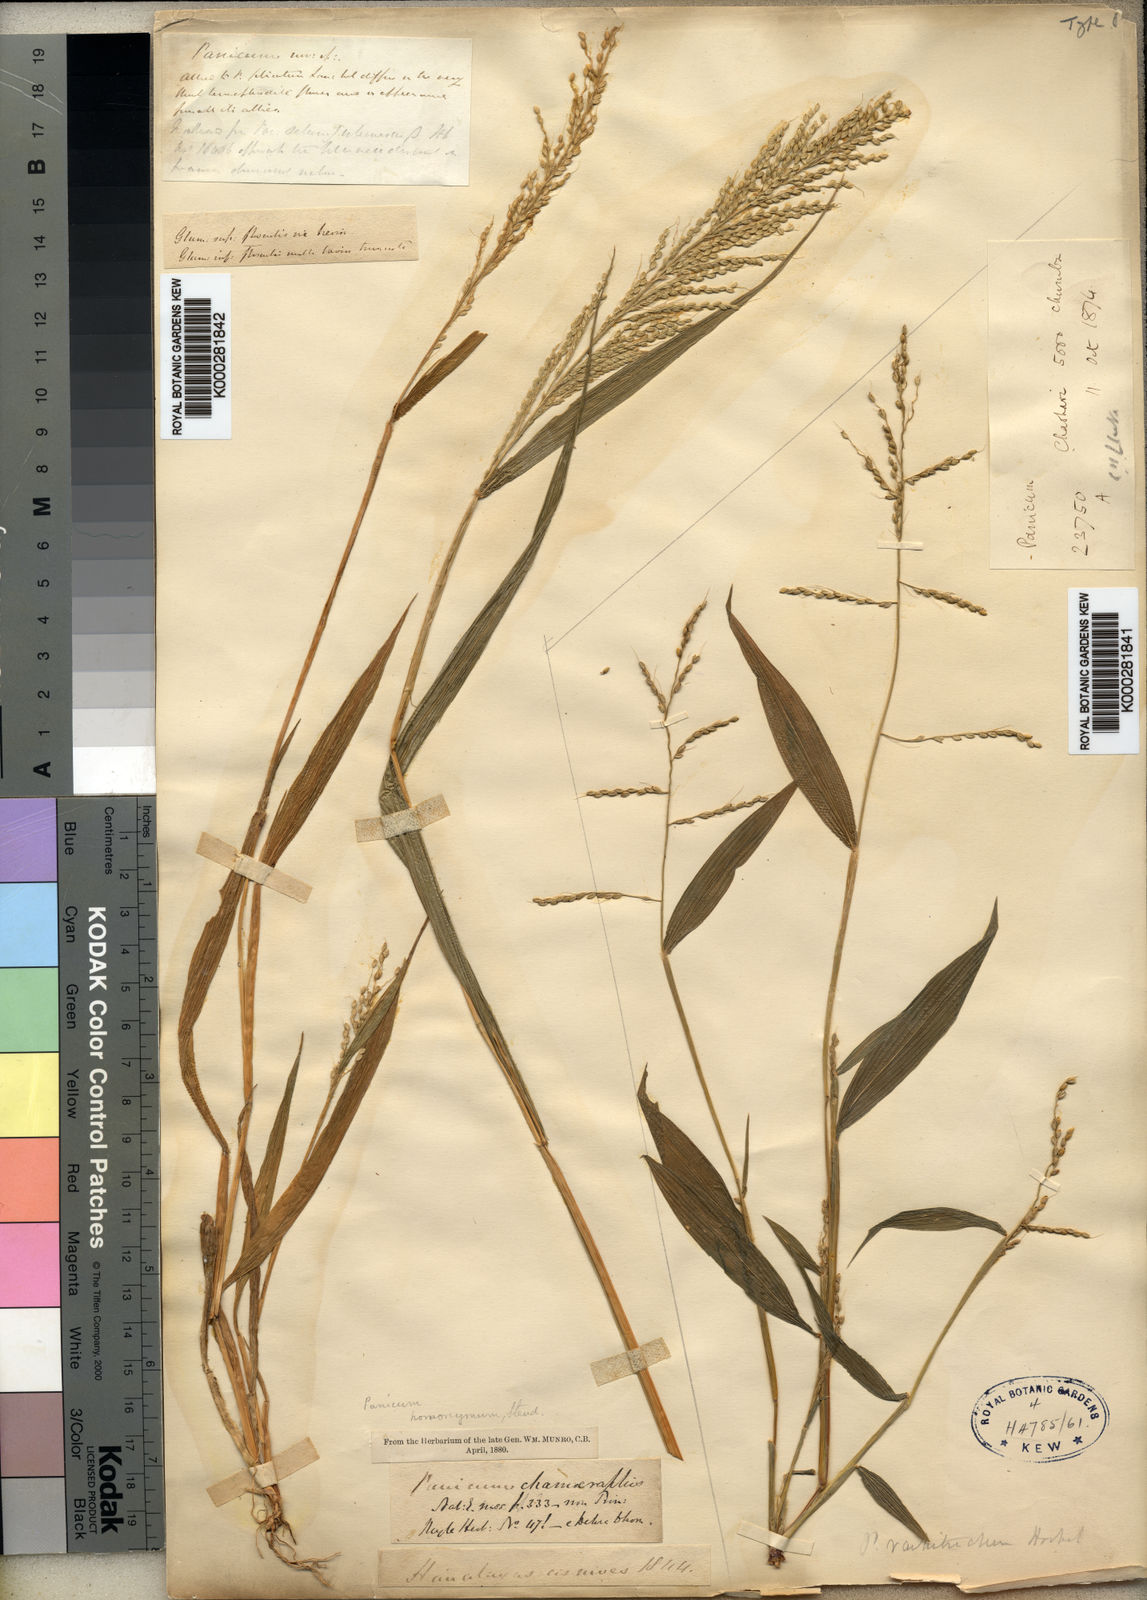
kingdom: Plantae
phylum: Tracheophyta
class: Liliopsida
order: Poales
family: Poaceae
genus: Setaria
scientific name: Setaria homonyma
